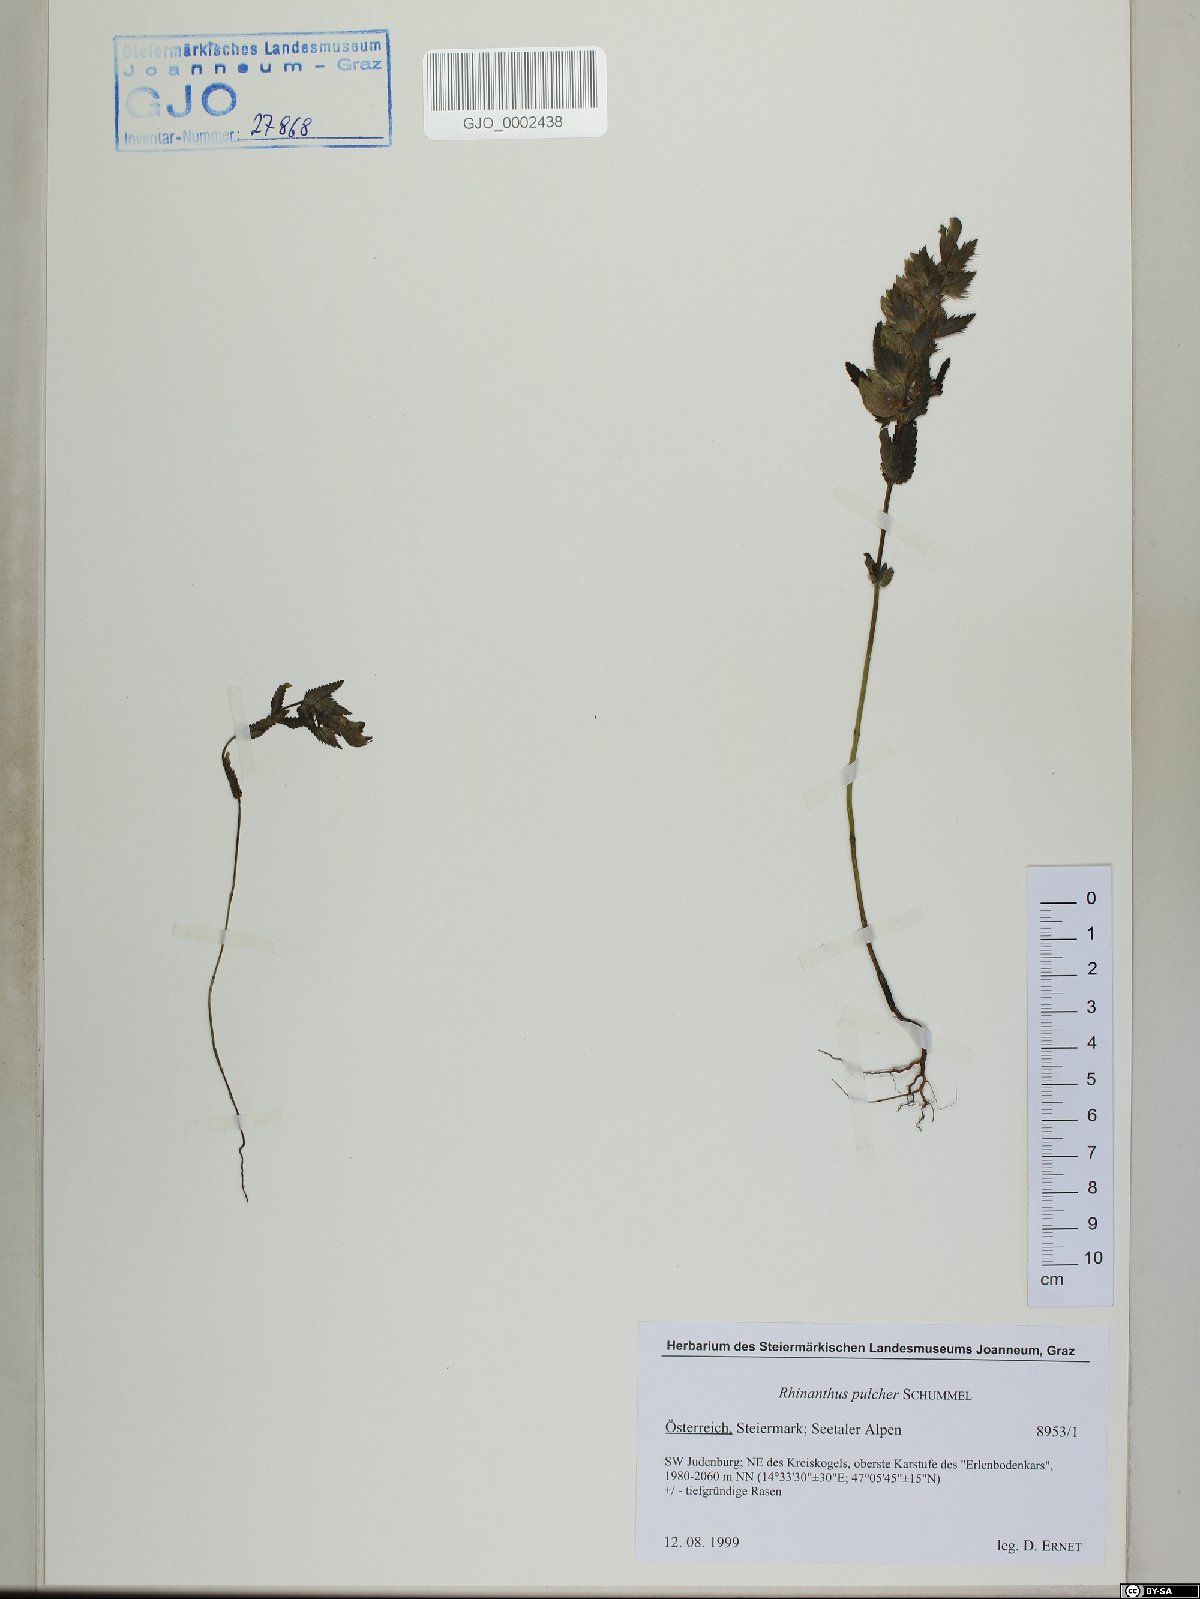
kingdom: Plantae
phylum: Tracheophyta
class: Magnoliopsida
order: Lamiales
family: Orobanchaceae
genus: Rhinanthus
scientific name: Rhinanthus riphaeus
